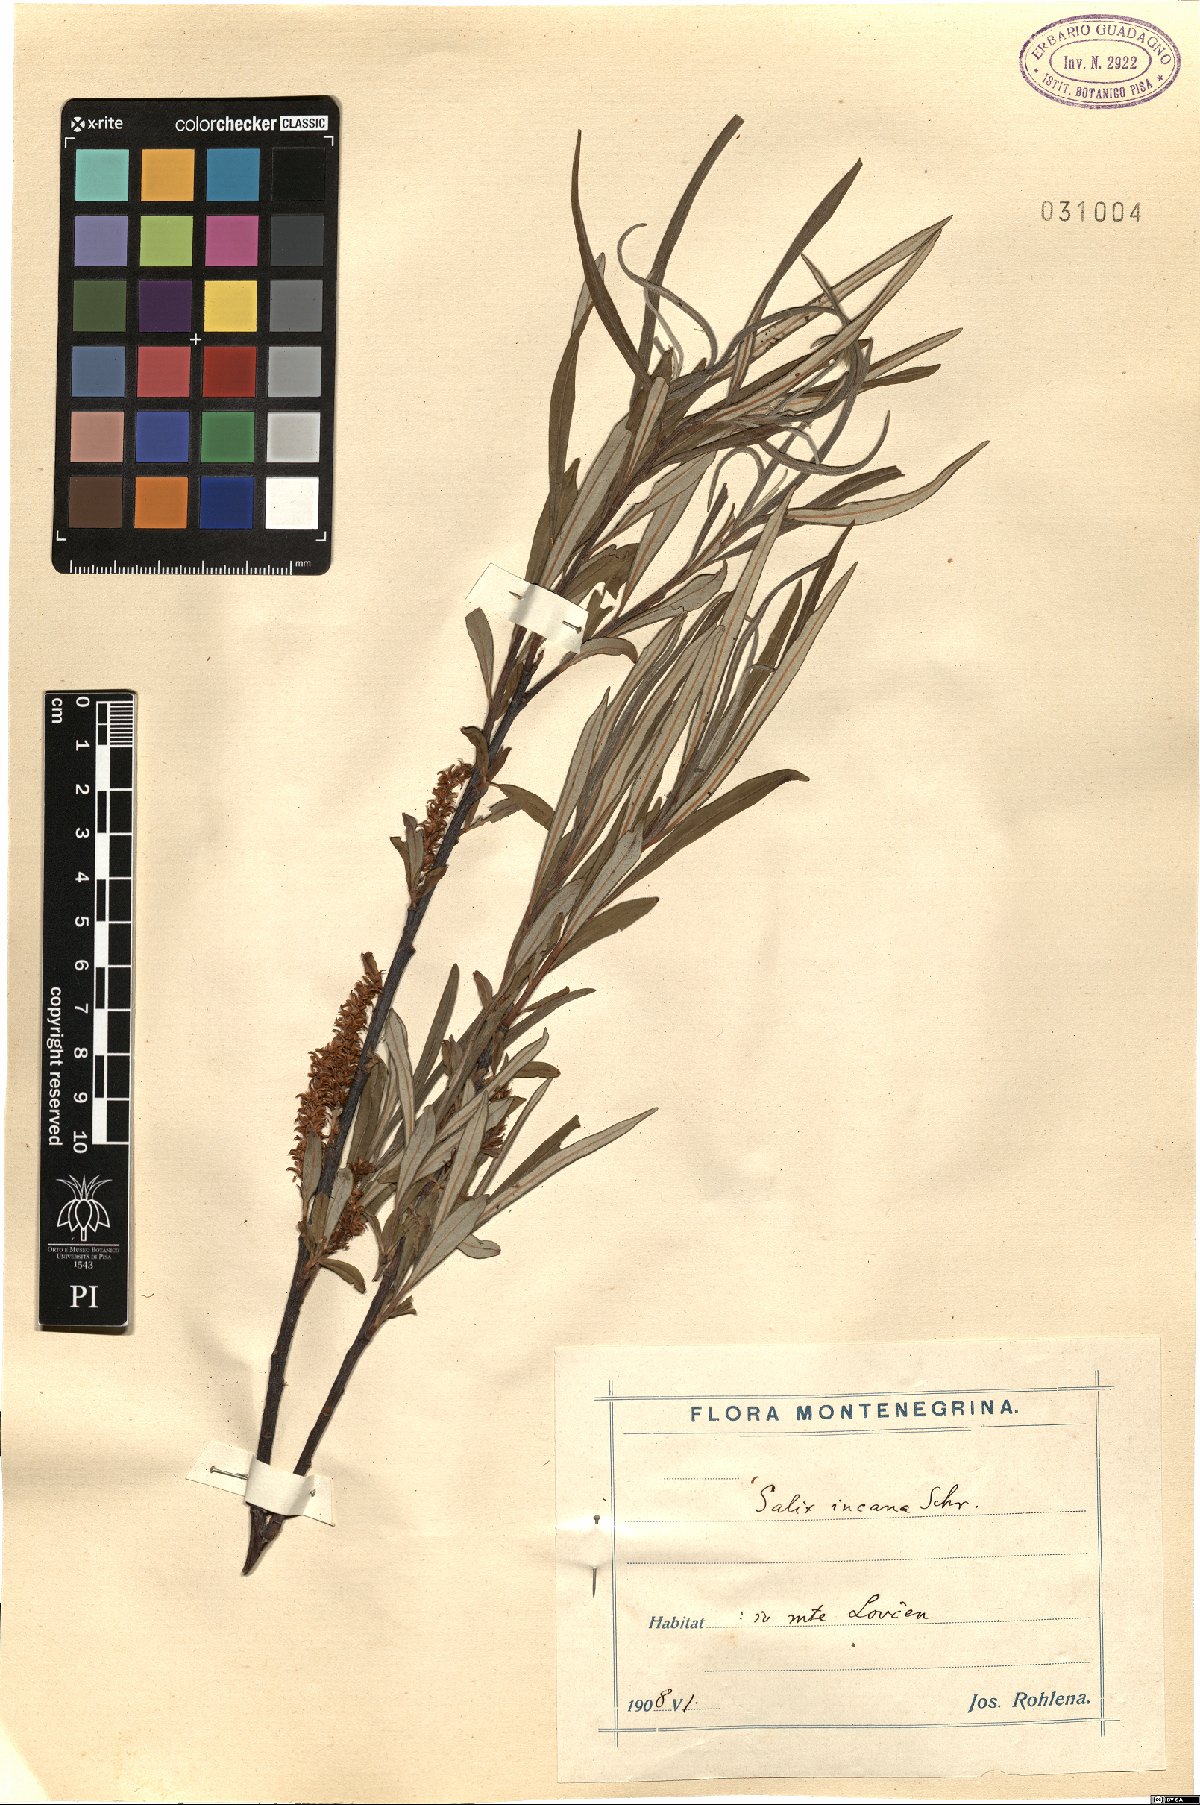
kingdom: Plantae
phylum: Tracheophyta
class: Magnoliopsida
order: Malpighiales
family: Salicaceae
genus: Salix
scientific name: Salix eleagnos
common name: Elaeagnus willow
